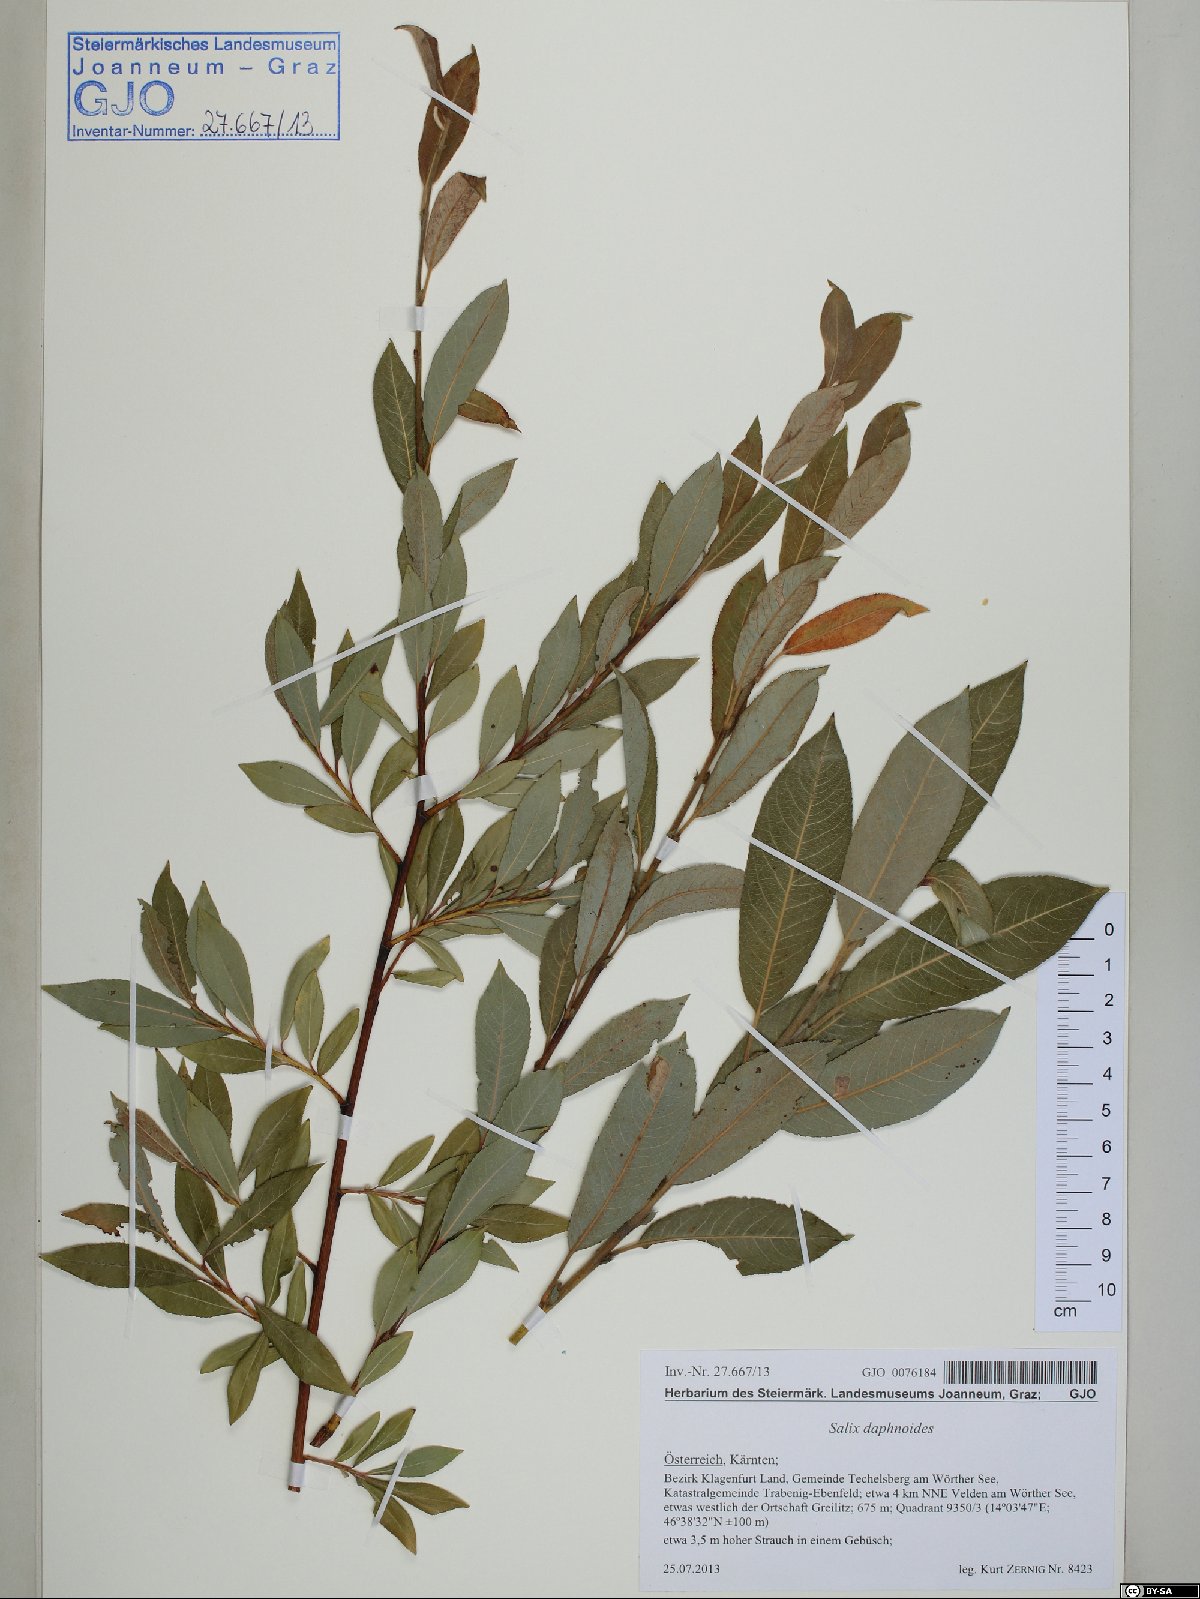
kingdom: Plantae
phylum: Tracheophyta
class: Magnoliopsida
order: Malpighiales
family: Salicaceae
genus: Salix
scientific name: Salix daphnoides
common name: European violet-willow
